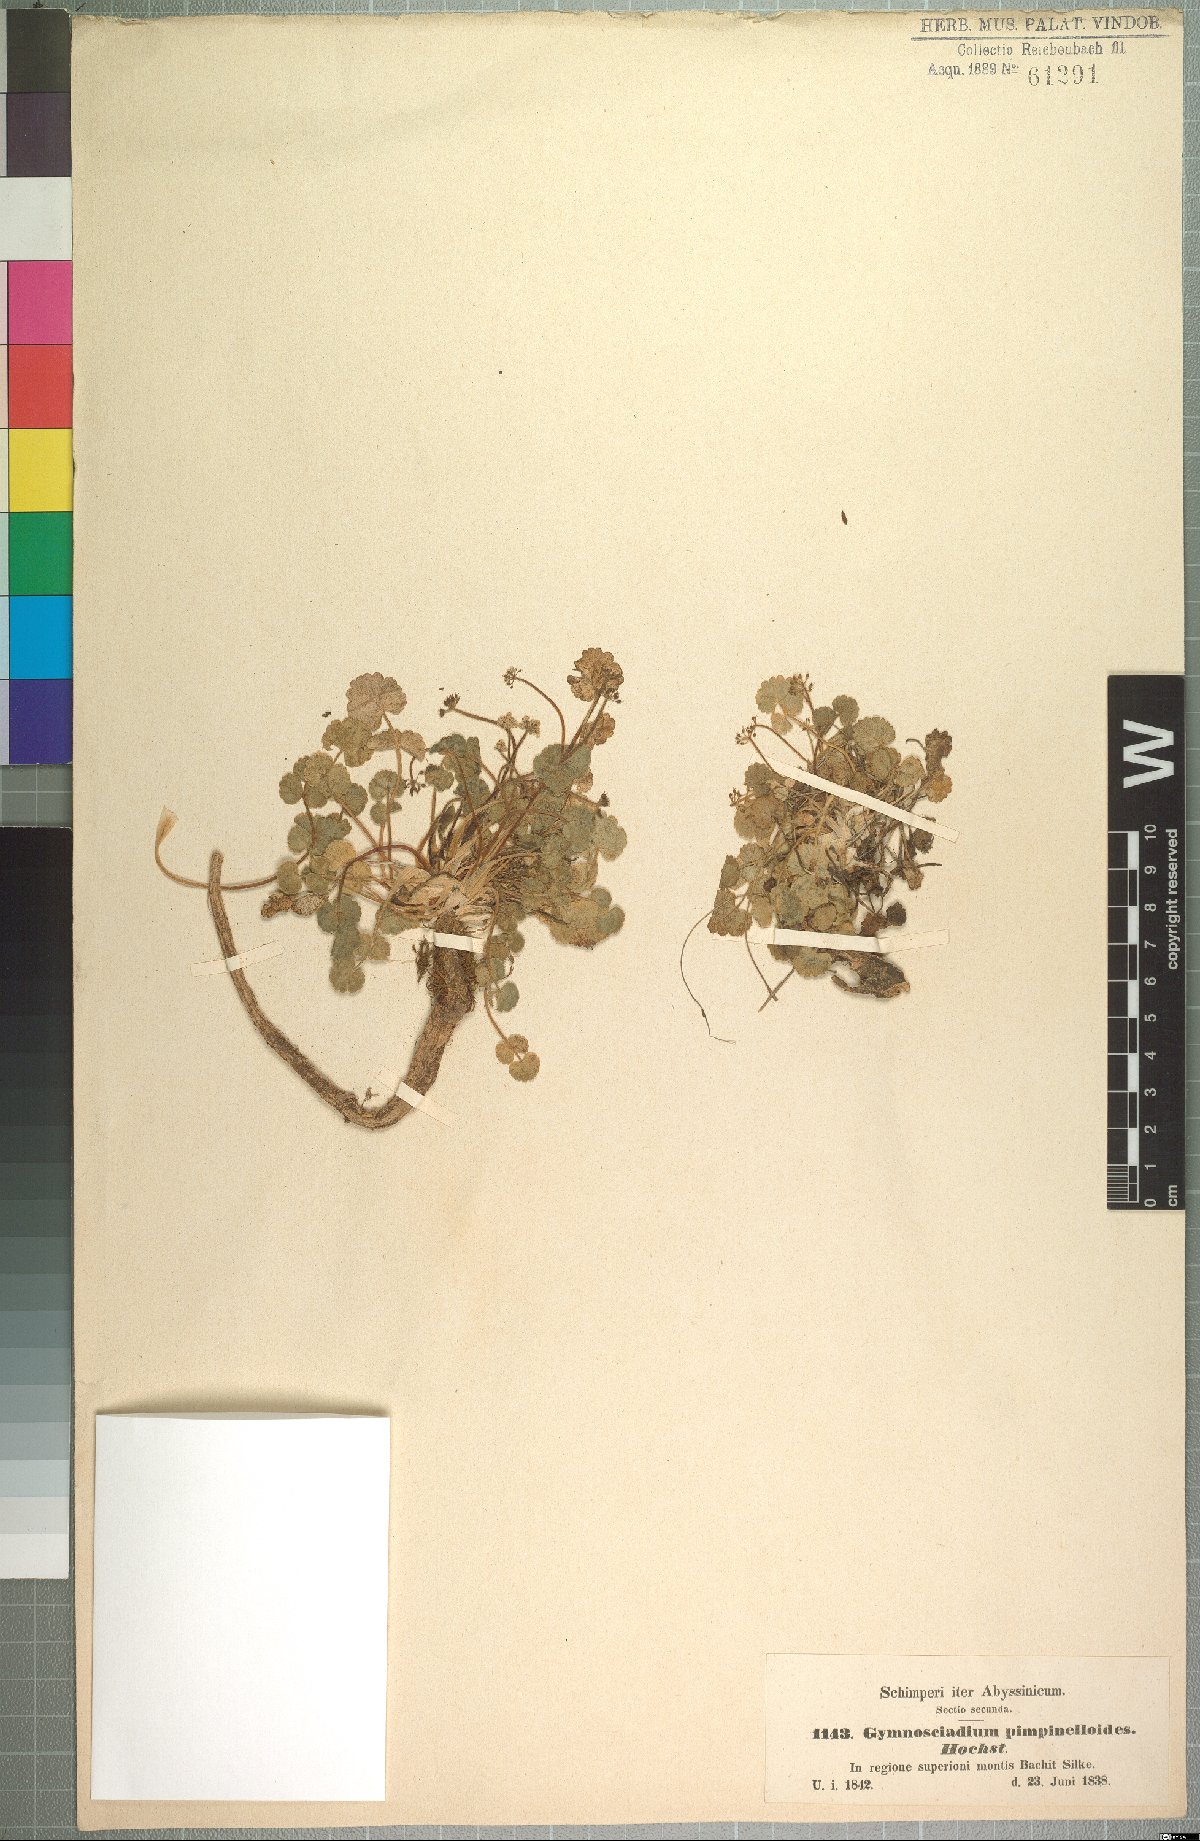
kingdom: Plantae
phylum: Tracheophyta
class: Magnoliopsida
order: Apiales
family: Apiaceae
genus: Pimpinella
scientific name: Pimpinella pimpinelloides
